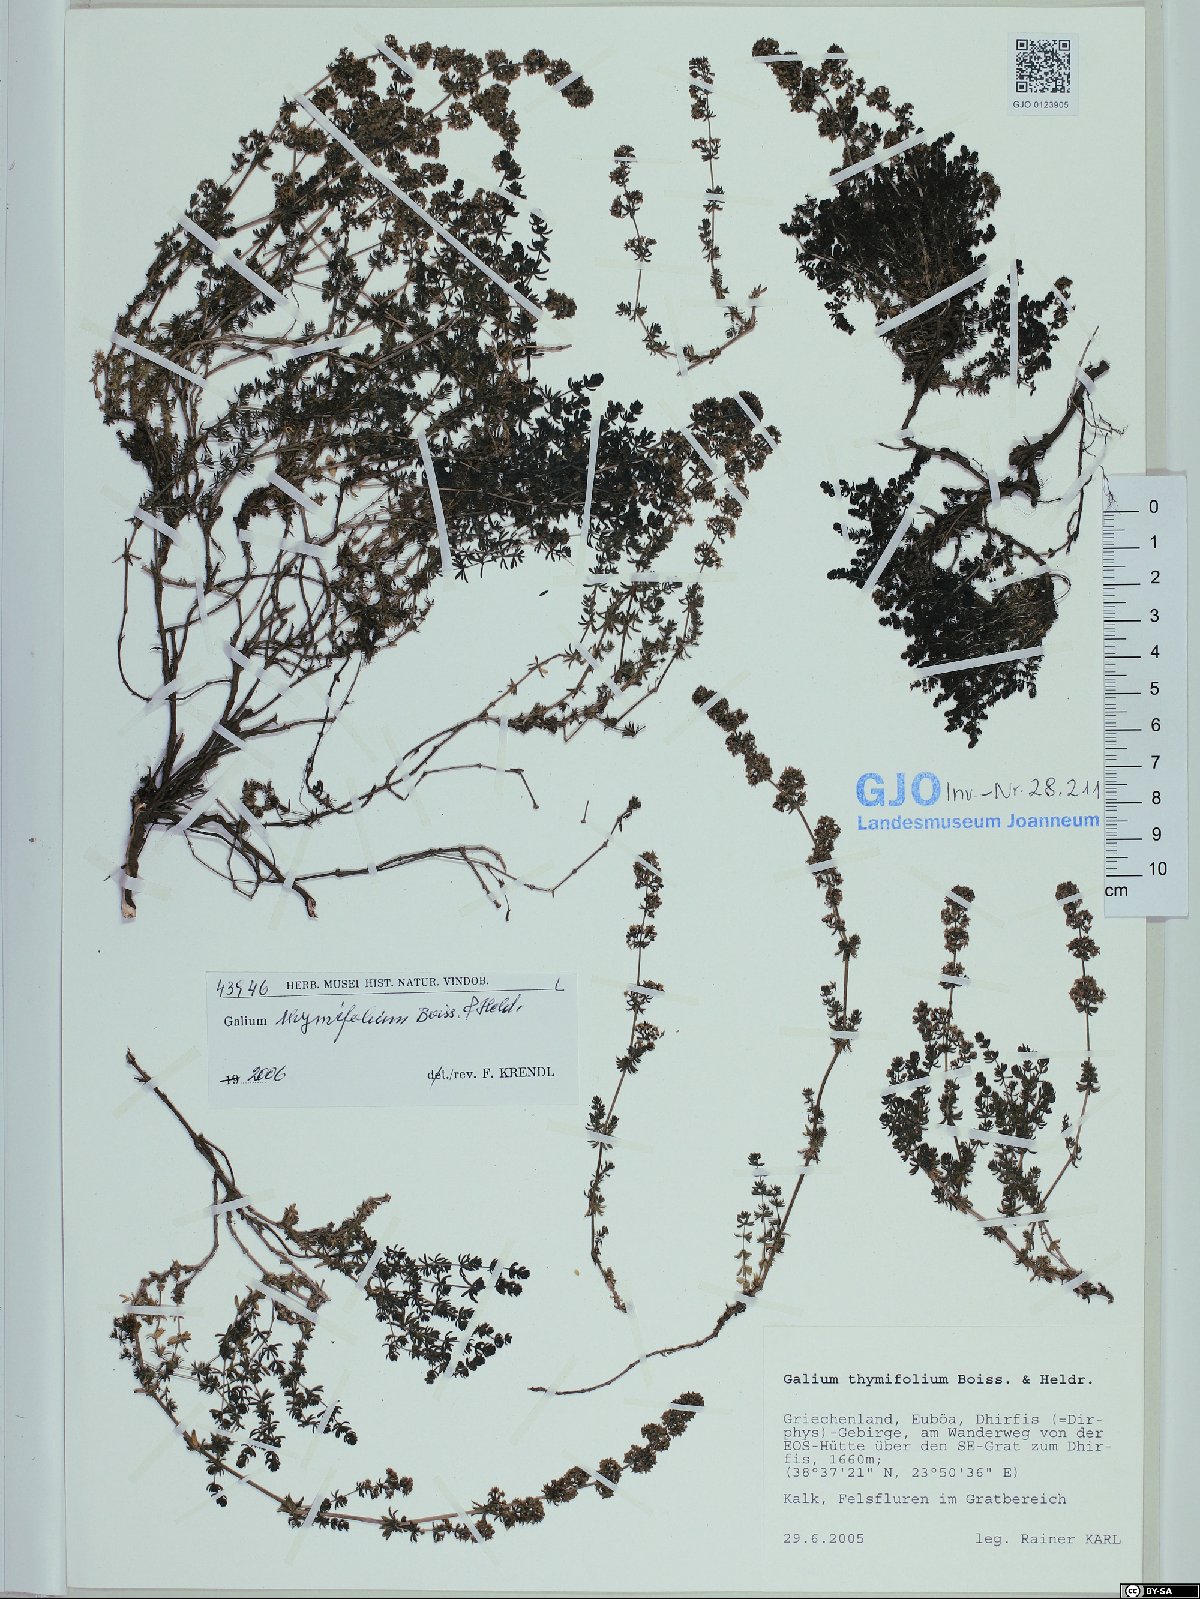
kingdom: Plantae
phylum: Tracheophyta
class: Magnoliopsida
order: Gentianales
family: Rubiaceae
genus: Galium
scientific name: Galium thymifolium
